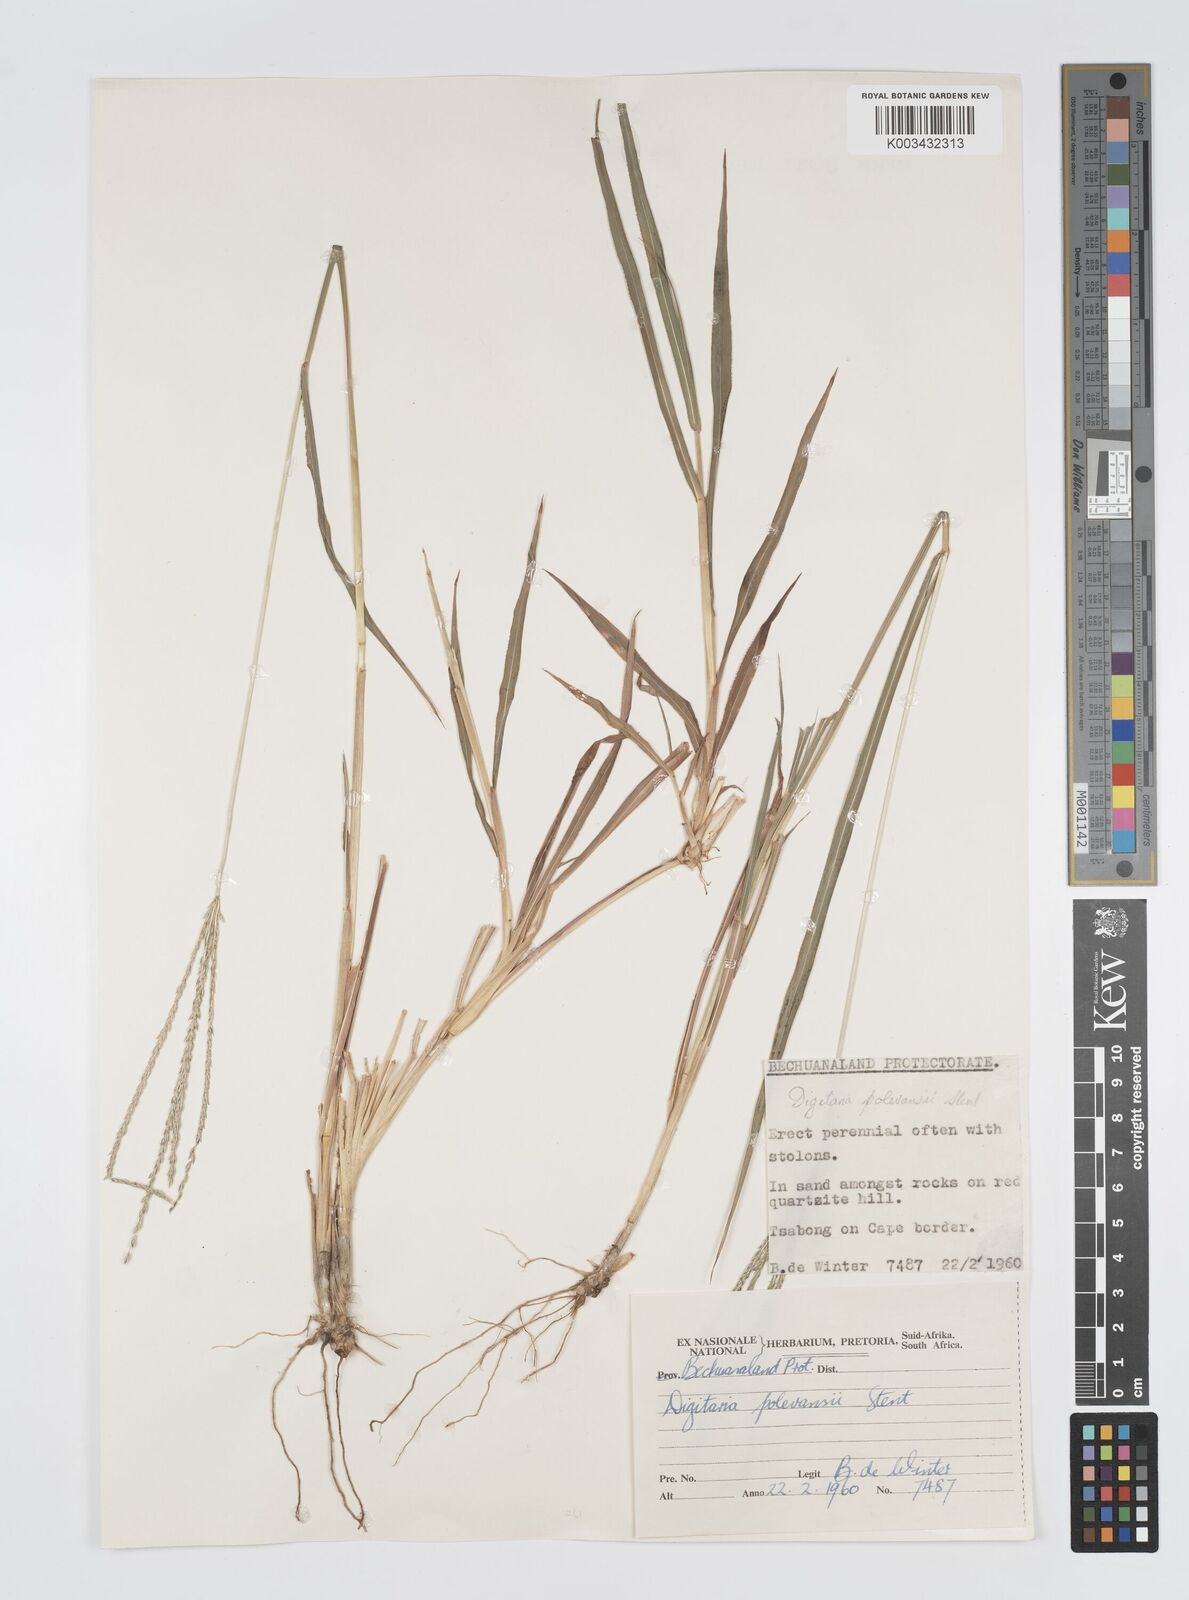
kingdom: Plantae
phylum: Tracheophyta
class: Liliopsida
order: Poales
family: Poaceae
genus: Digitaria
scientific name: Digitaria milanjiana
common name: Madagascar crabgrass
